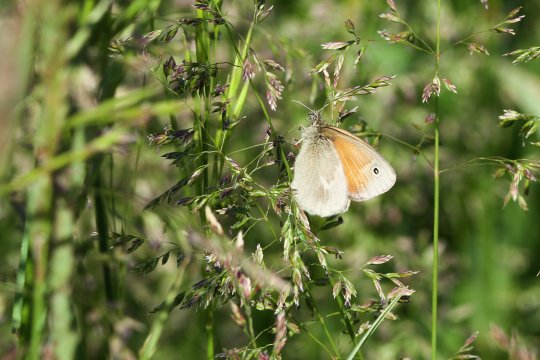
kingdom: Animalia
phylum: Arthropoda
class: Insecta
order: Lepidoptera
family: Nymphalidae
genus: Coenonympha
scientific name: Coenonympha tullia
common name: Large Heath
